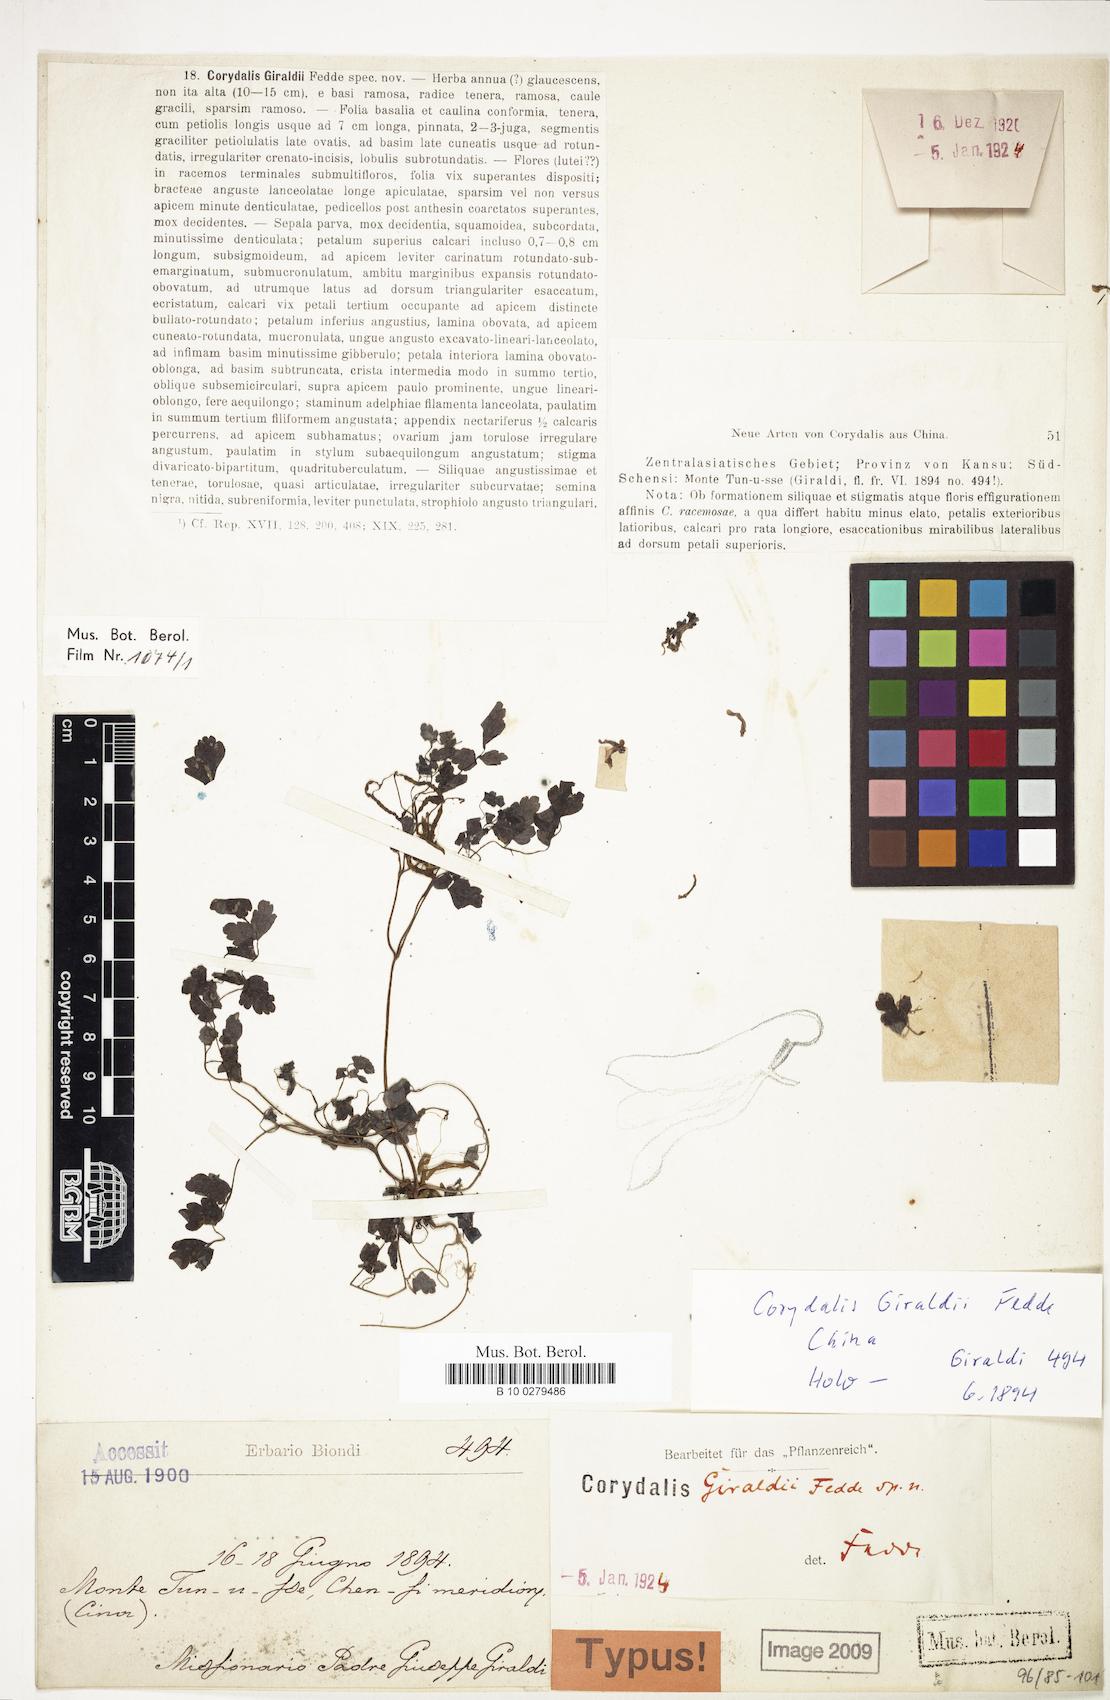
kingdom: Plantae
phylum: Tracheophyta
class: Magnoliopsida
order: Ranunculales
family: Papaveraceae
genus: Corydalis
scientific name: Corydalis giraldii
